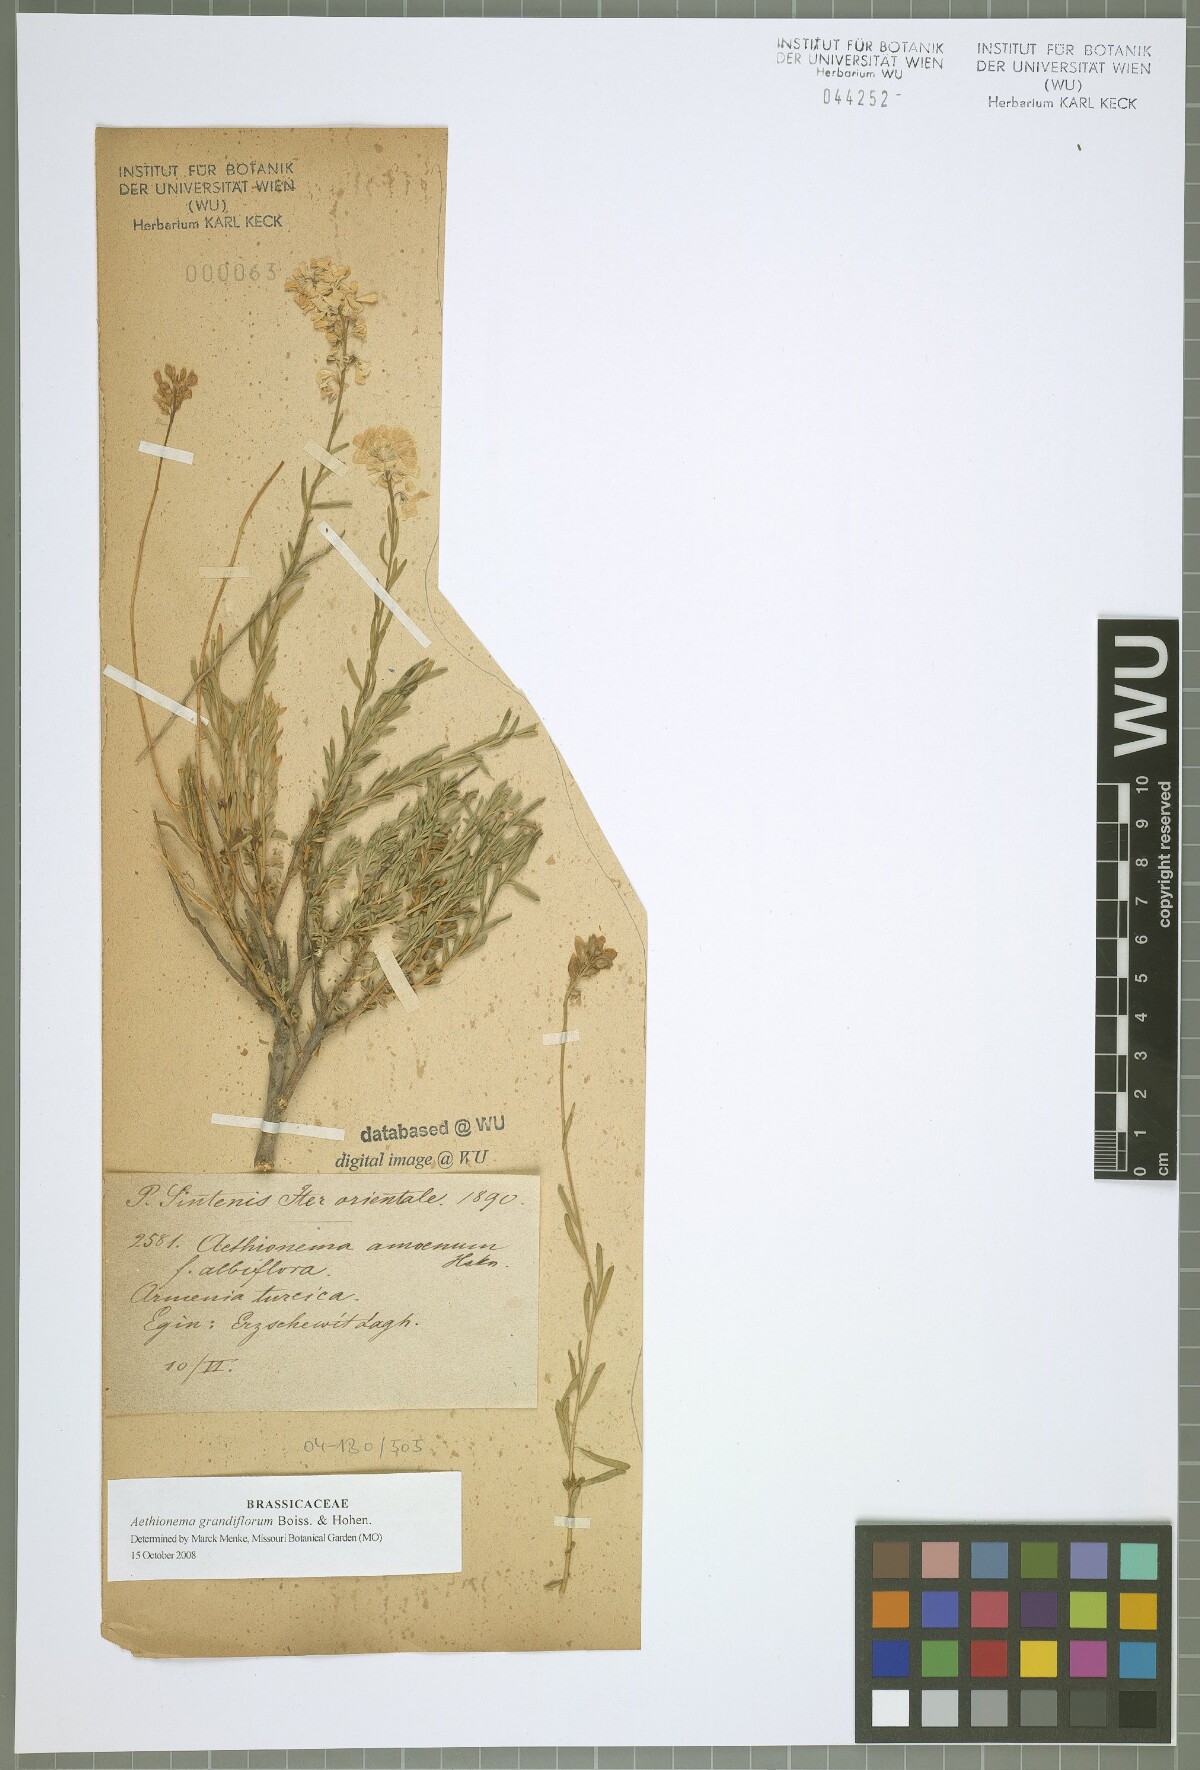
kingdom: Plantae
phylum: Tracheophyta
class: Magnoliopsida
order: Brassicales
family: Brassicaceae
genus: Aethionema
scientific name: Aethionema amoenum
